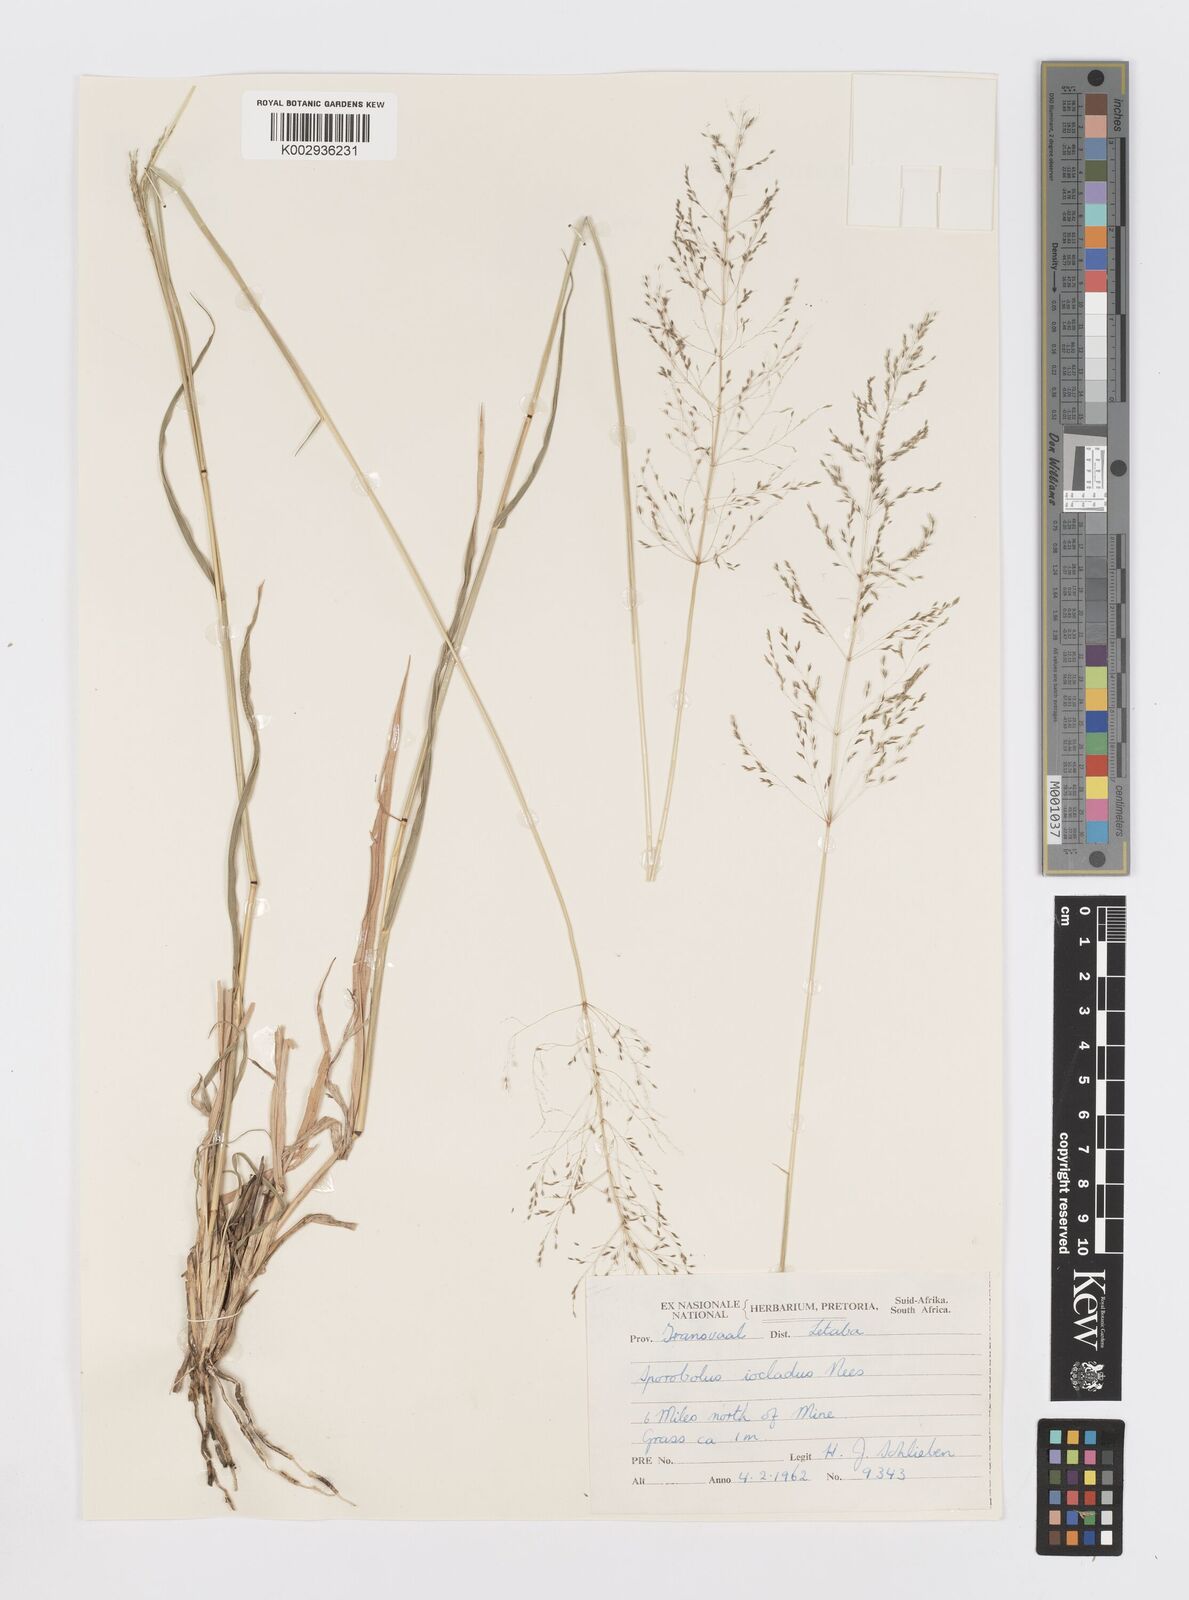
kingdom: Plantae
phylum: Tracheophyta
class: Liliopsida
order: Poales
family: Poaceae
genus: Sporobolus
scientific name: Sporobolus ioclados
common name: Pan dropseed
